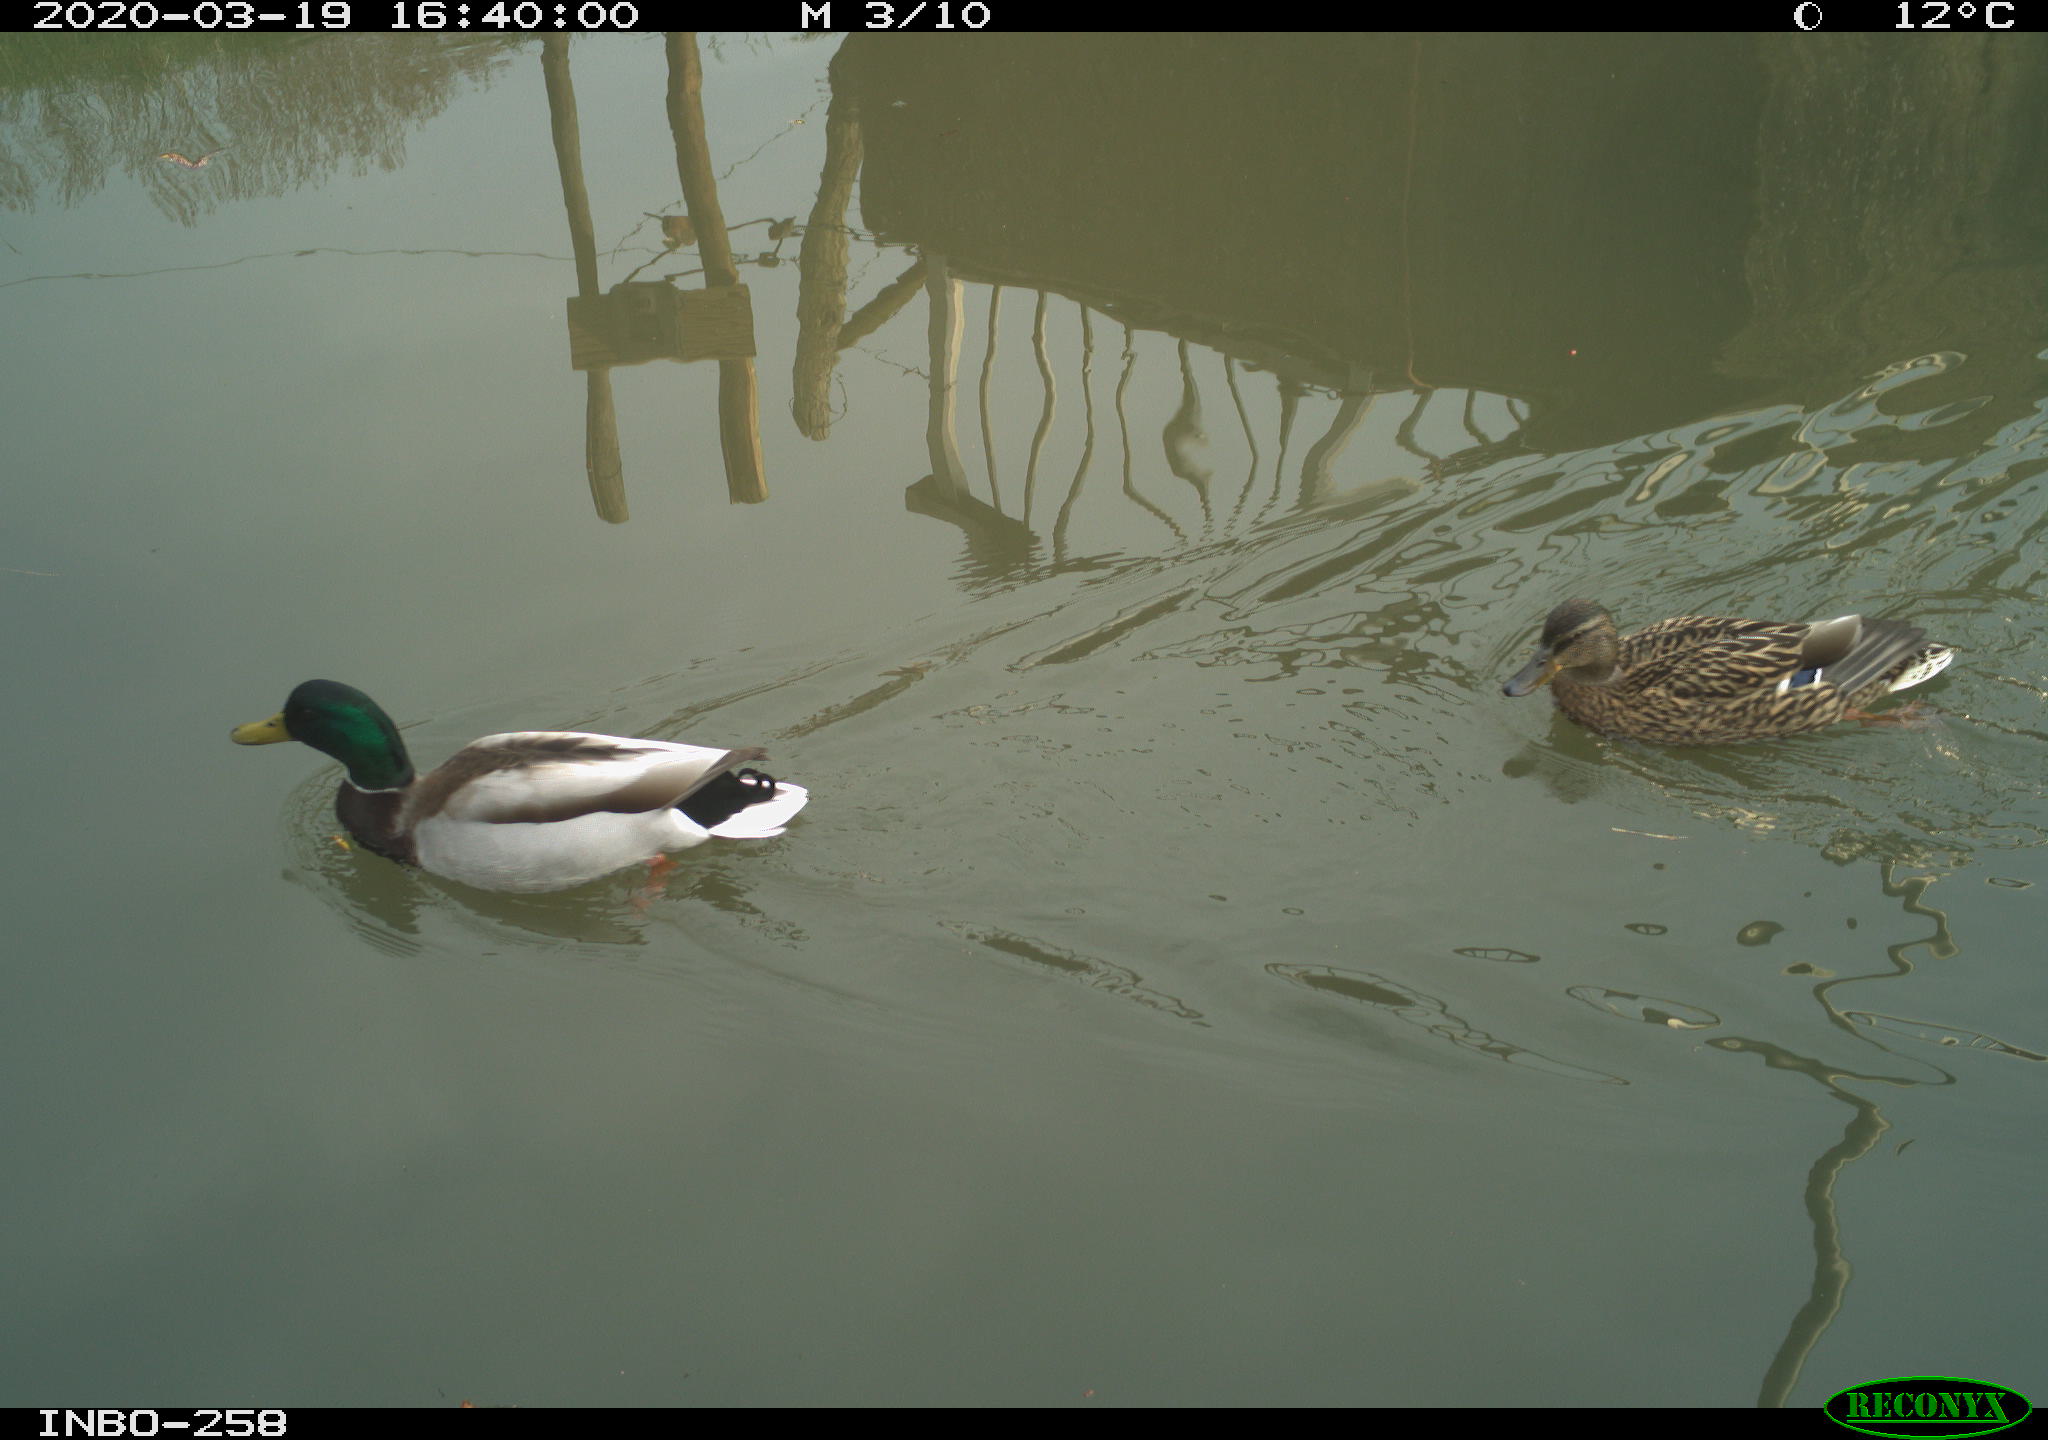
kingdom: Animalia
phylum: Chordata
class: Aves
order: Anseriformes
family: Anatidae
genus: Anas
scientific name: Anas platyrhynchos
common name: Mallard
